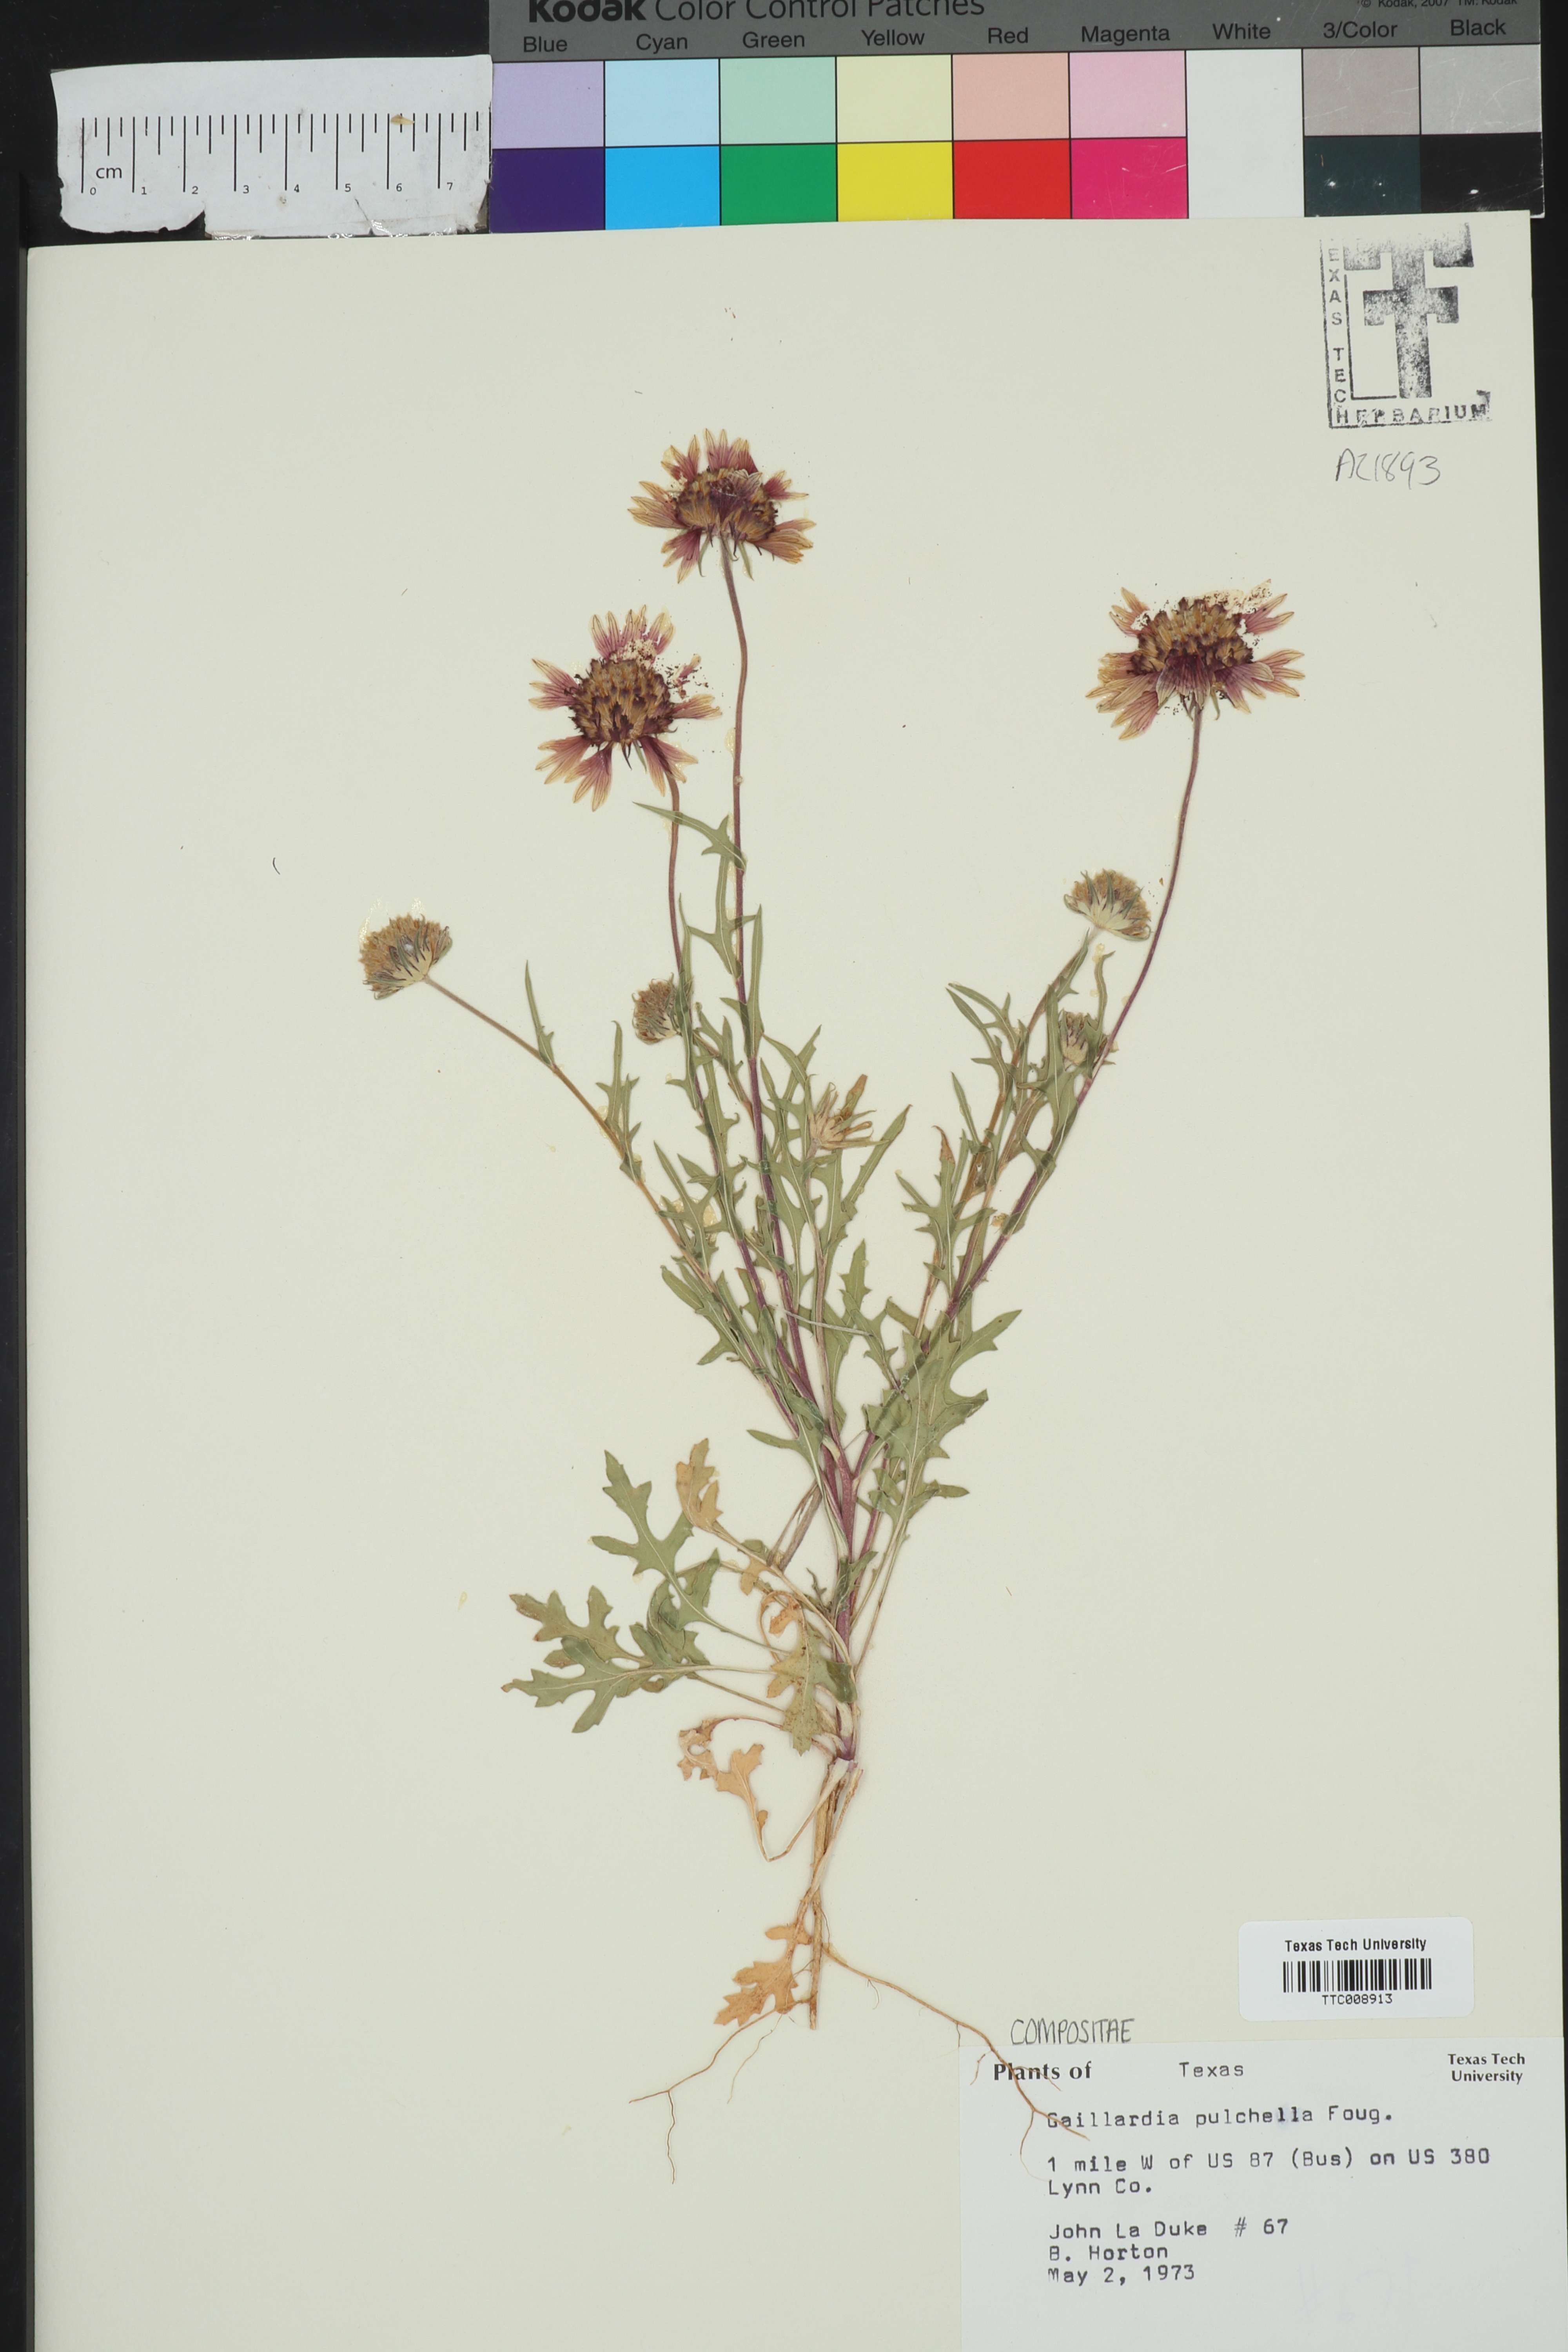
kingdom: Plantae
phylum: Tracheophyta
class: Magnoliopsida
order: Asterales
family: Asteraceae
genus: Gaillardia
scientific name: Gaillardia pulchella
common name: Firewheel
